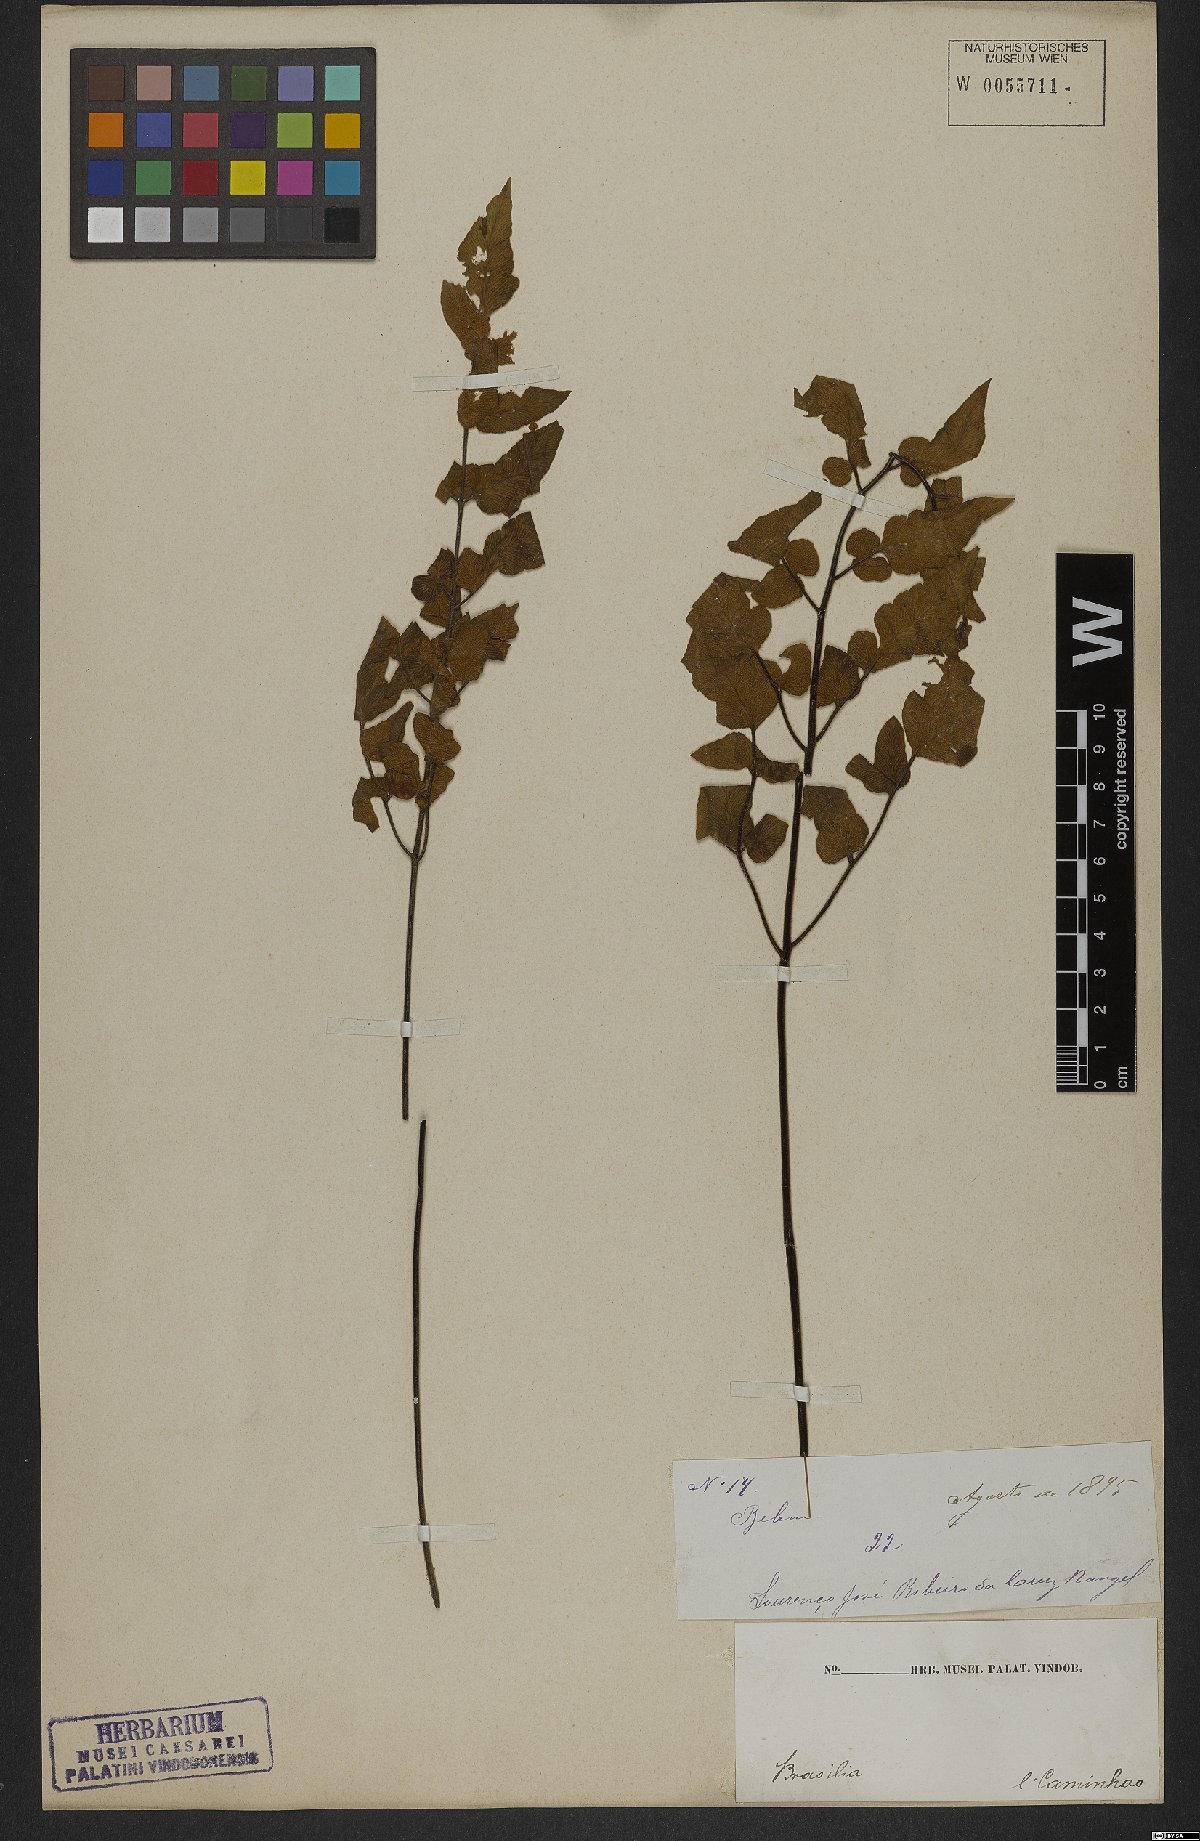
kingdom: Plantae
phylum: Tracheophyta
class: Polypodiopsida
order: Polypodiales
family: Pteridaceae
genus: Hemionitis
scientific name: Hemionitis tomentosa
